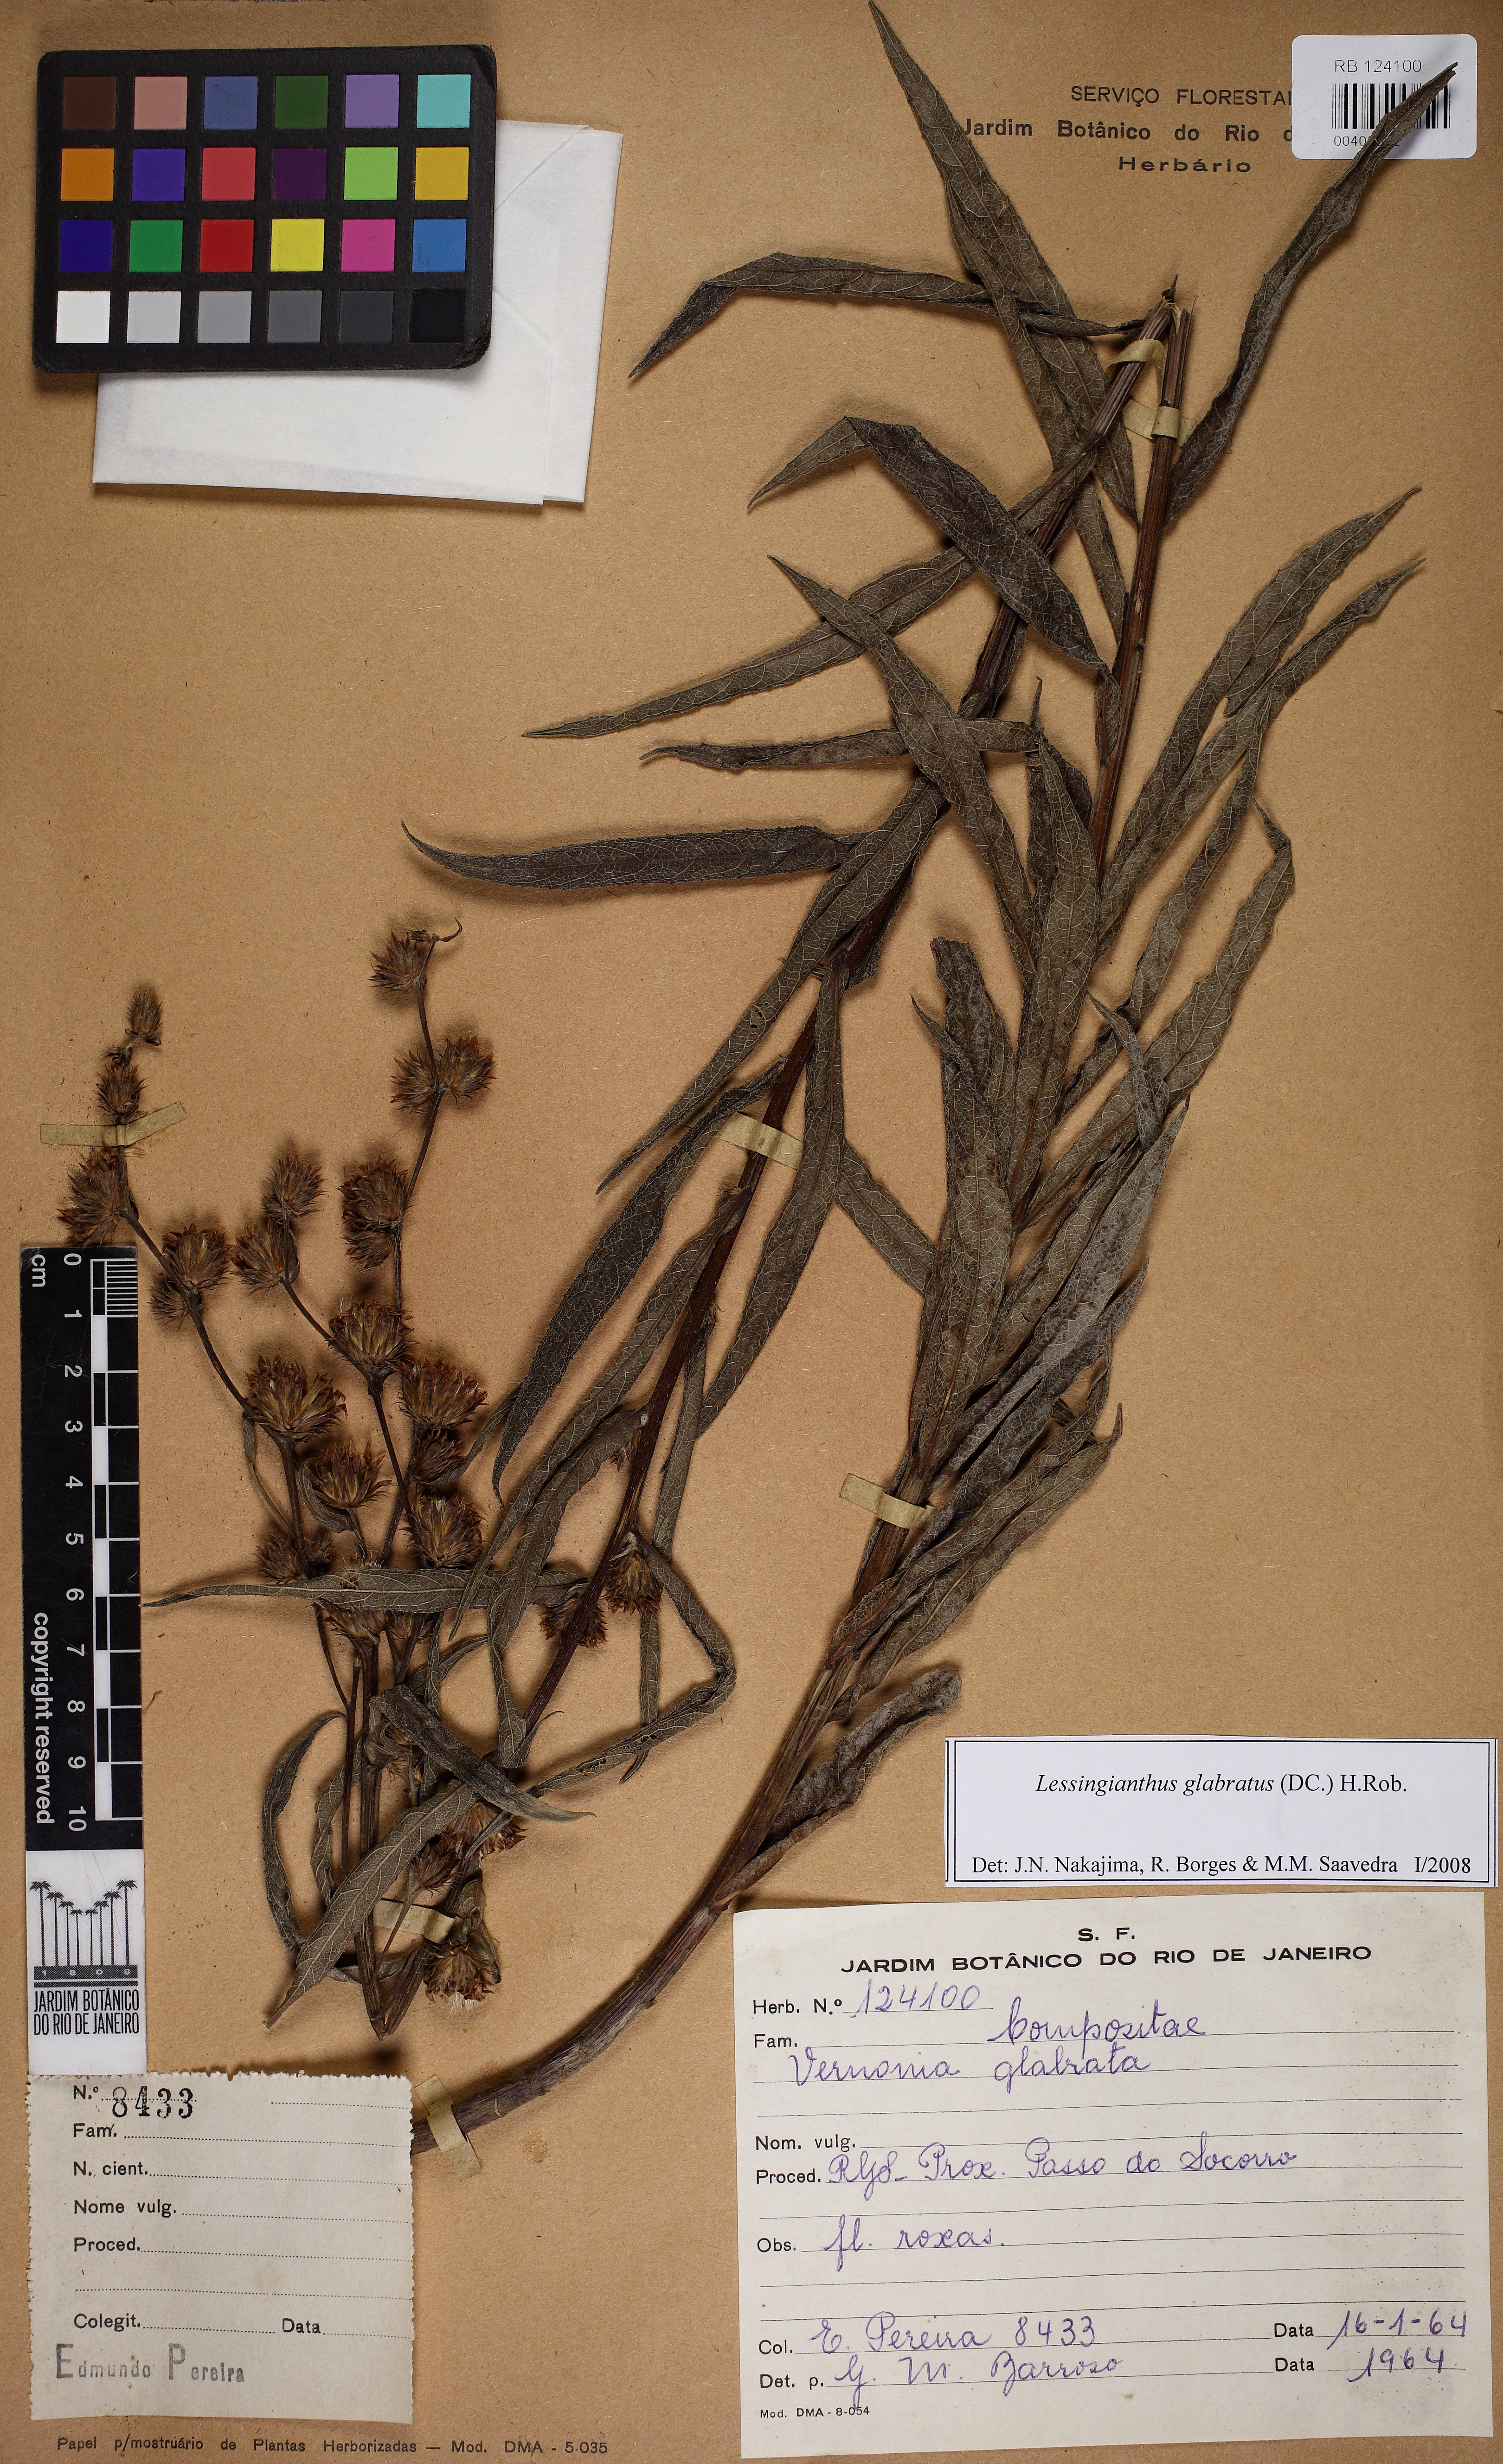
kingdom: Plantae
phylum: Tracheophyta
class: Magnoliopsida
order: Asterales
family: Asteraceae
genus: Lessingianthus
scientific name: Lessingianthus glabratus
